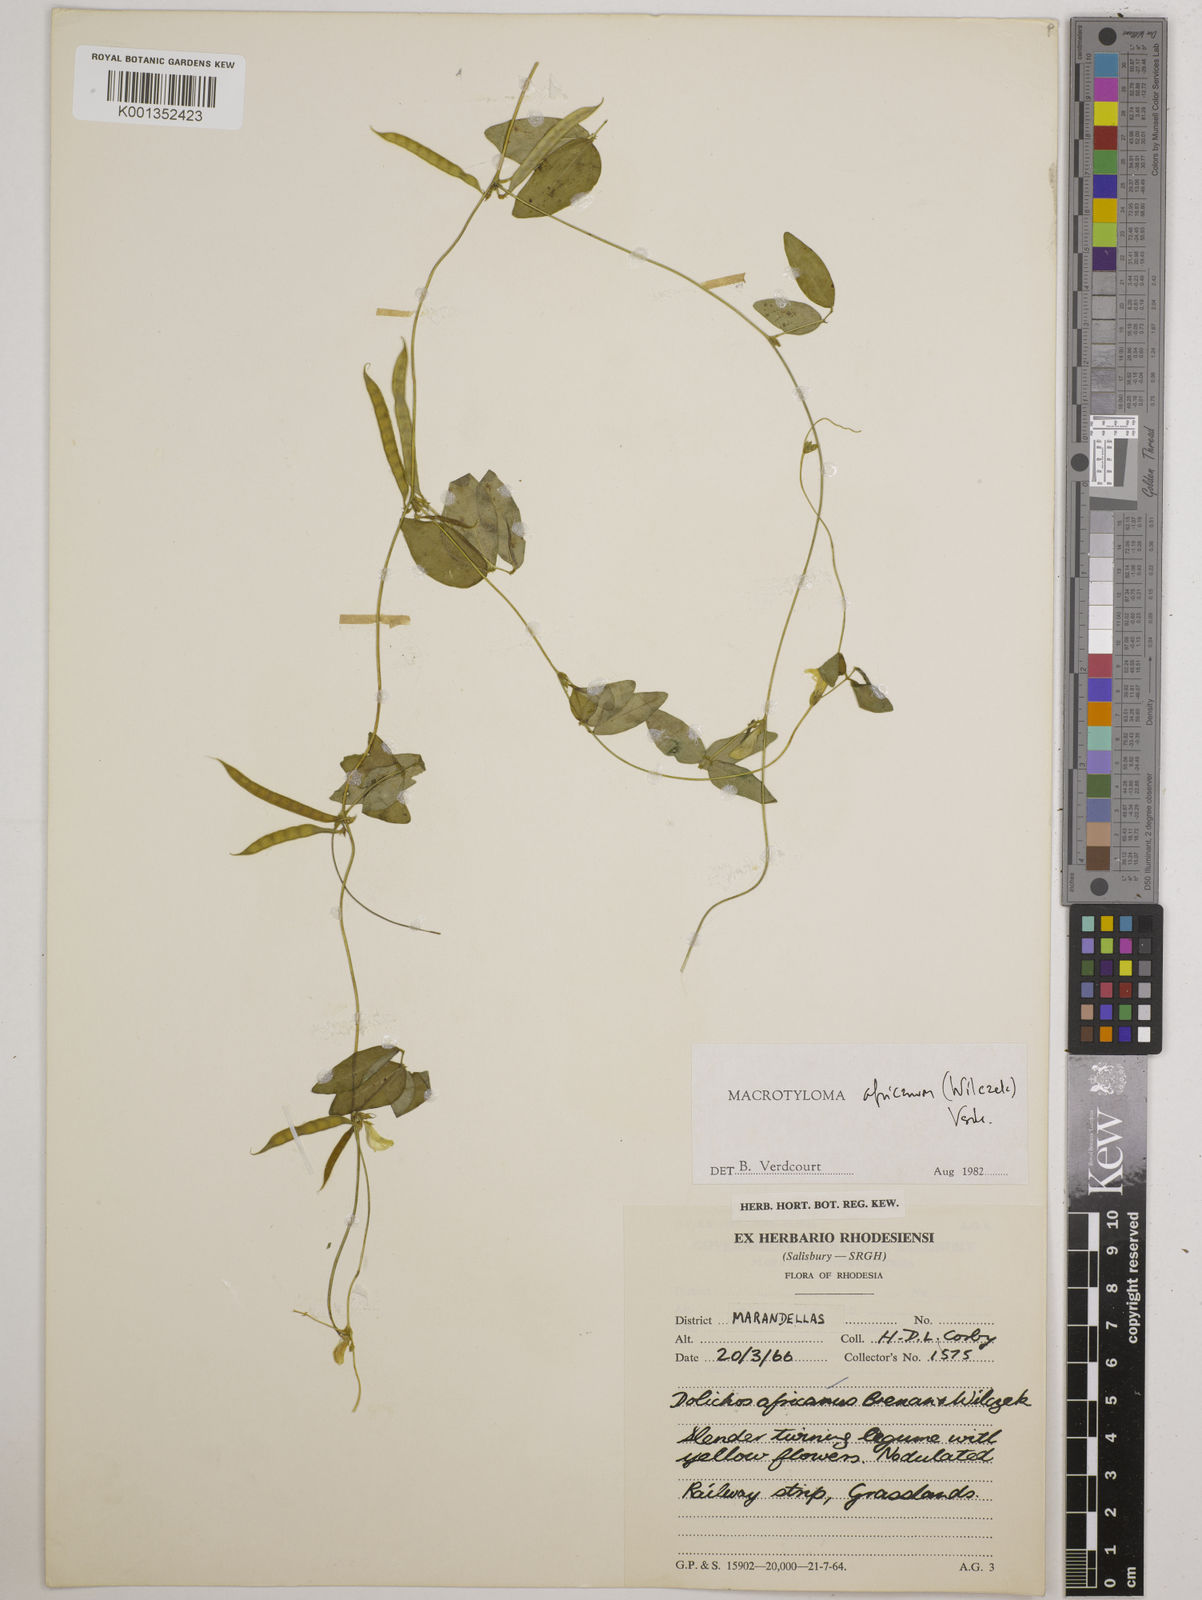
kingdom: Plantae
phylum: Tracheophyta
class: Magnoliopsida
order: Fabales
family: Fabaceae
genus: Macrotyloma
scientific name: Macrotyloma africanum
